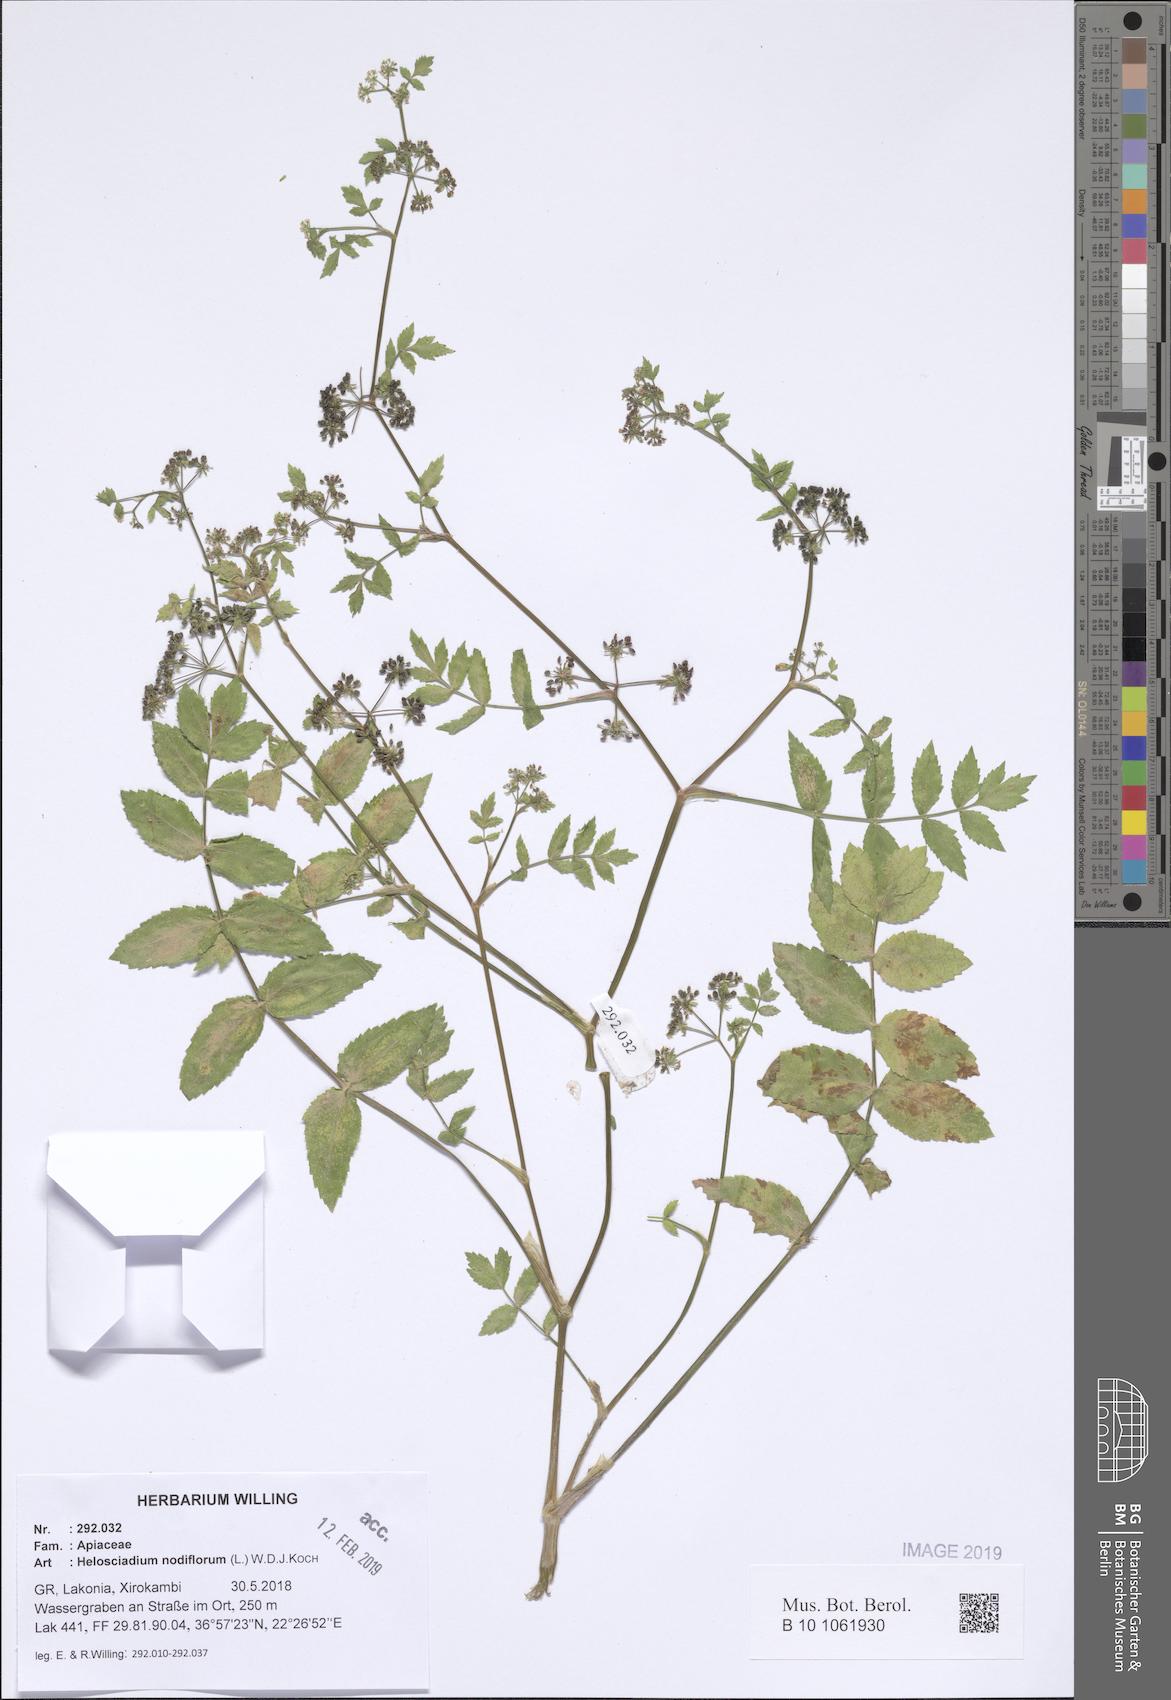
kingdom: Plantae
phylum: Tracheophyta
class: Magnoliopsida
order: Apiales
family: Apiaceae
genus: Helosciadium
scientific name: Helosciadium nodiflorum
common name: Fool's-watercress
